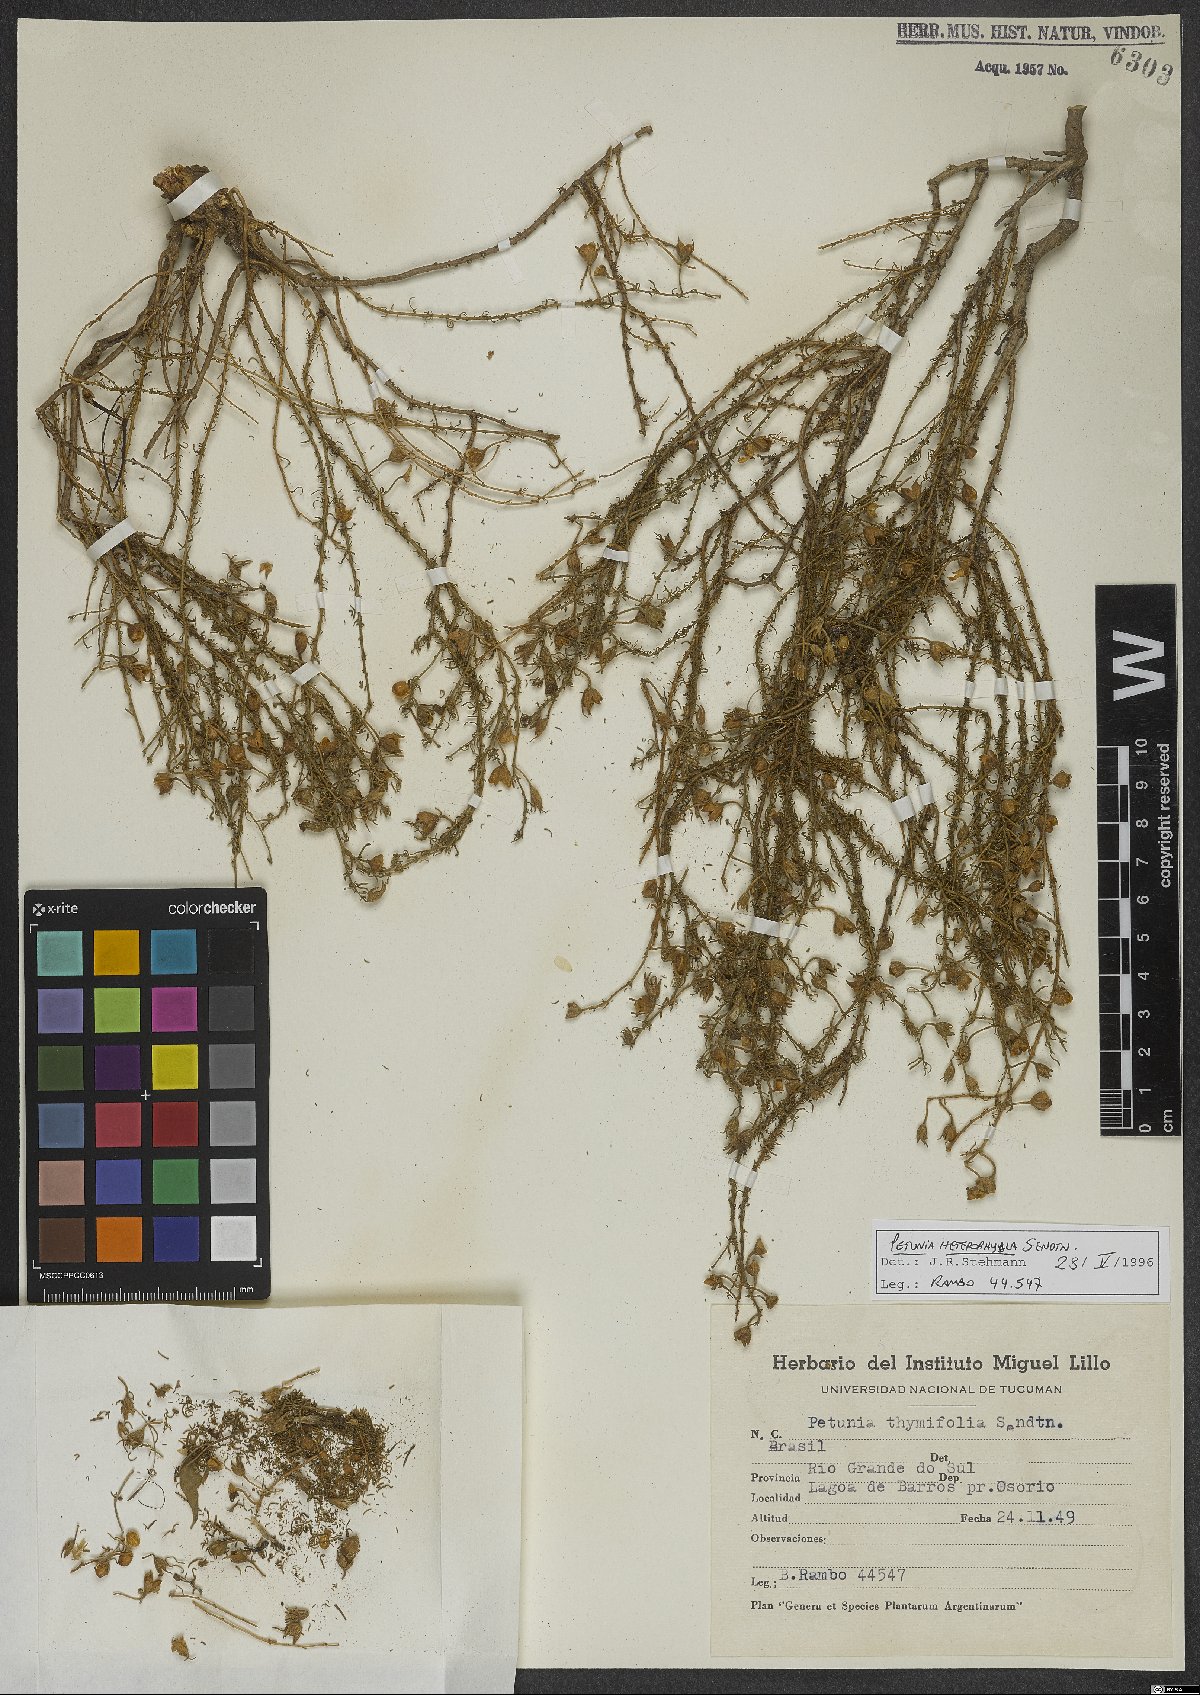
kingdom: Plantae
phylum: Tracheophyta
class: Magnoliopsida
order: Solanales
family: Solanaceae
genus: Calibrachoa
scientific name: Calibrachoa heterophylla
